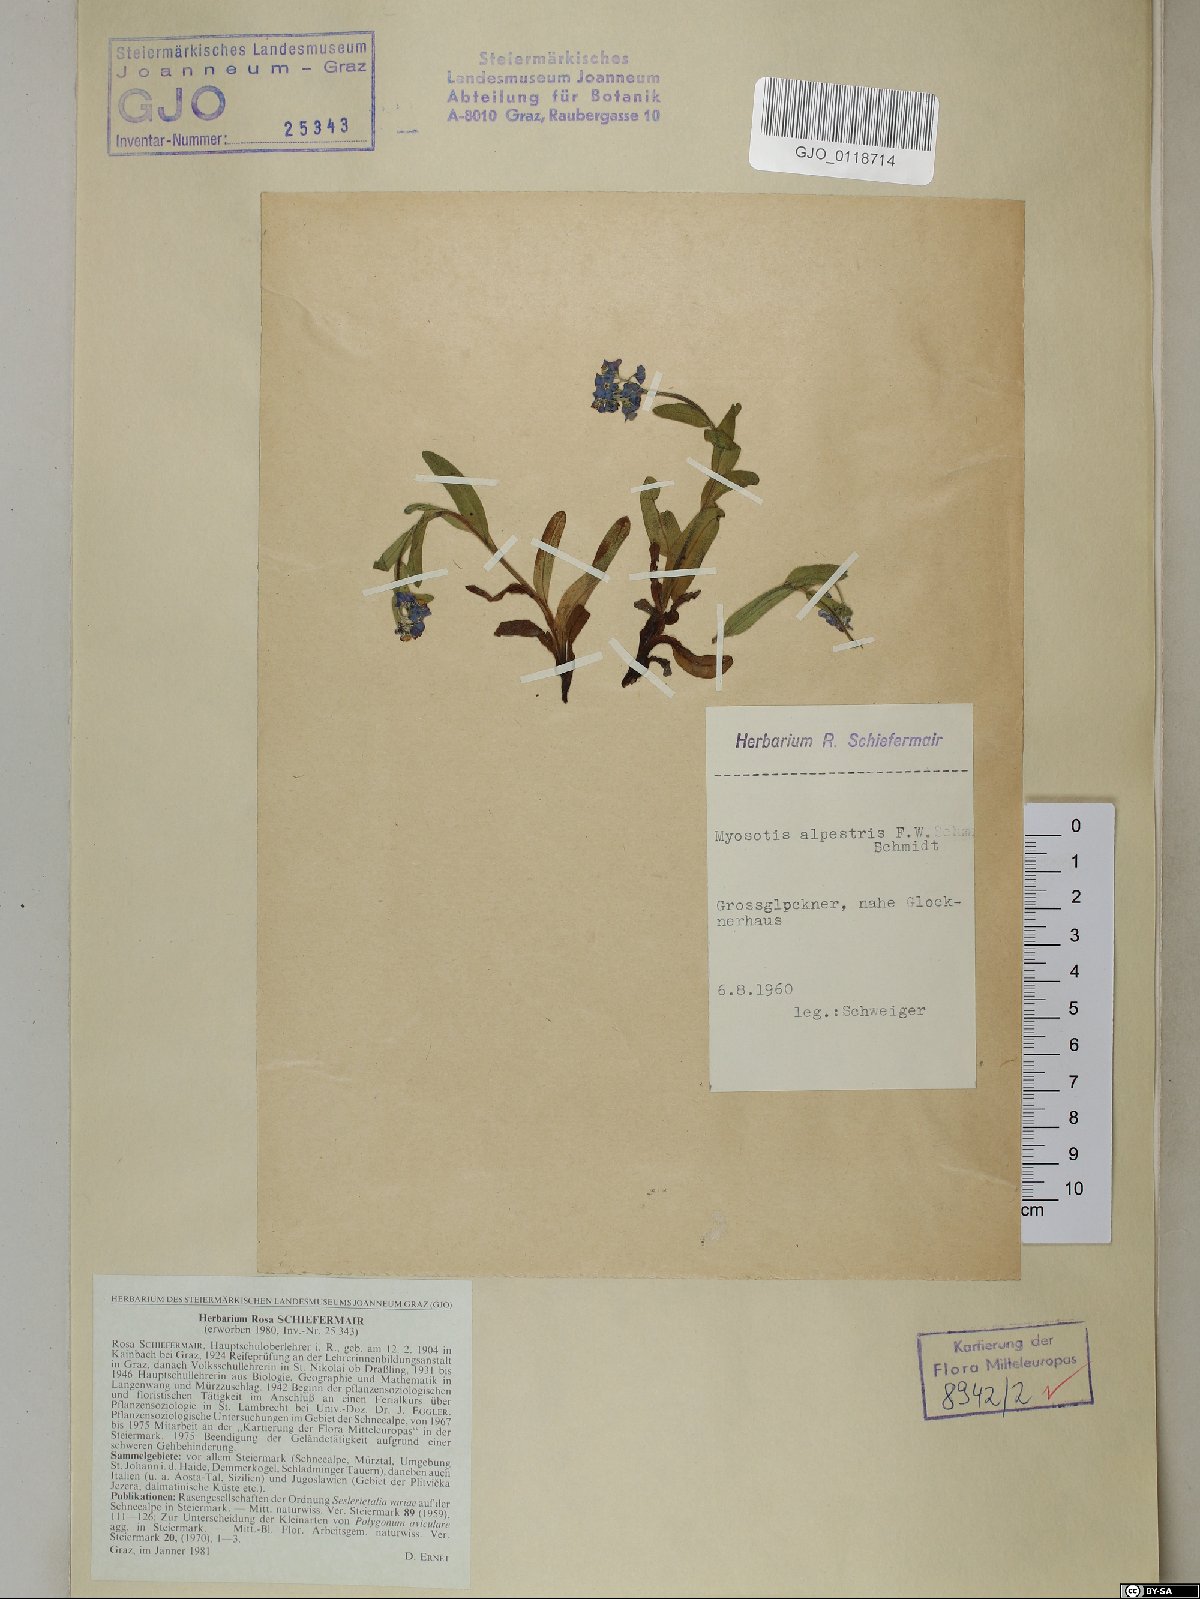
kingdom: Plantae
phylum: Tracheophyta
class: Magnoliopsida
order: Boraginales
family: Boraginaceae
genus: Myosotis
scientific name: Myosotis alpestris
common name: Alpine forget-me-not
